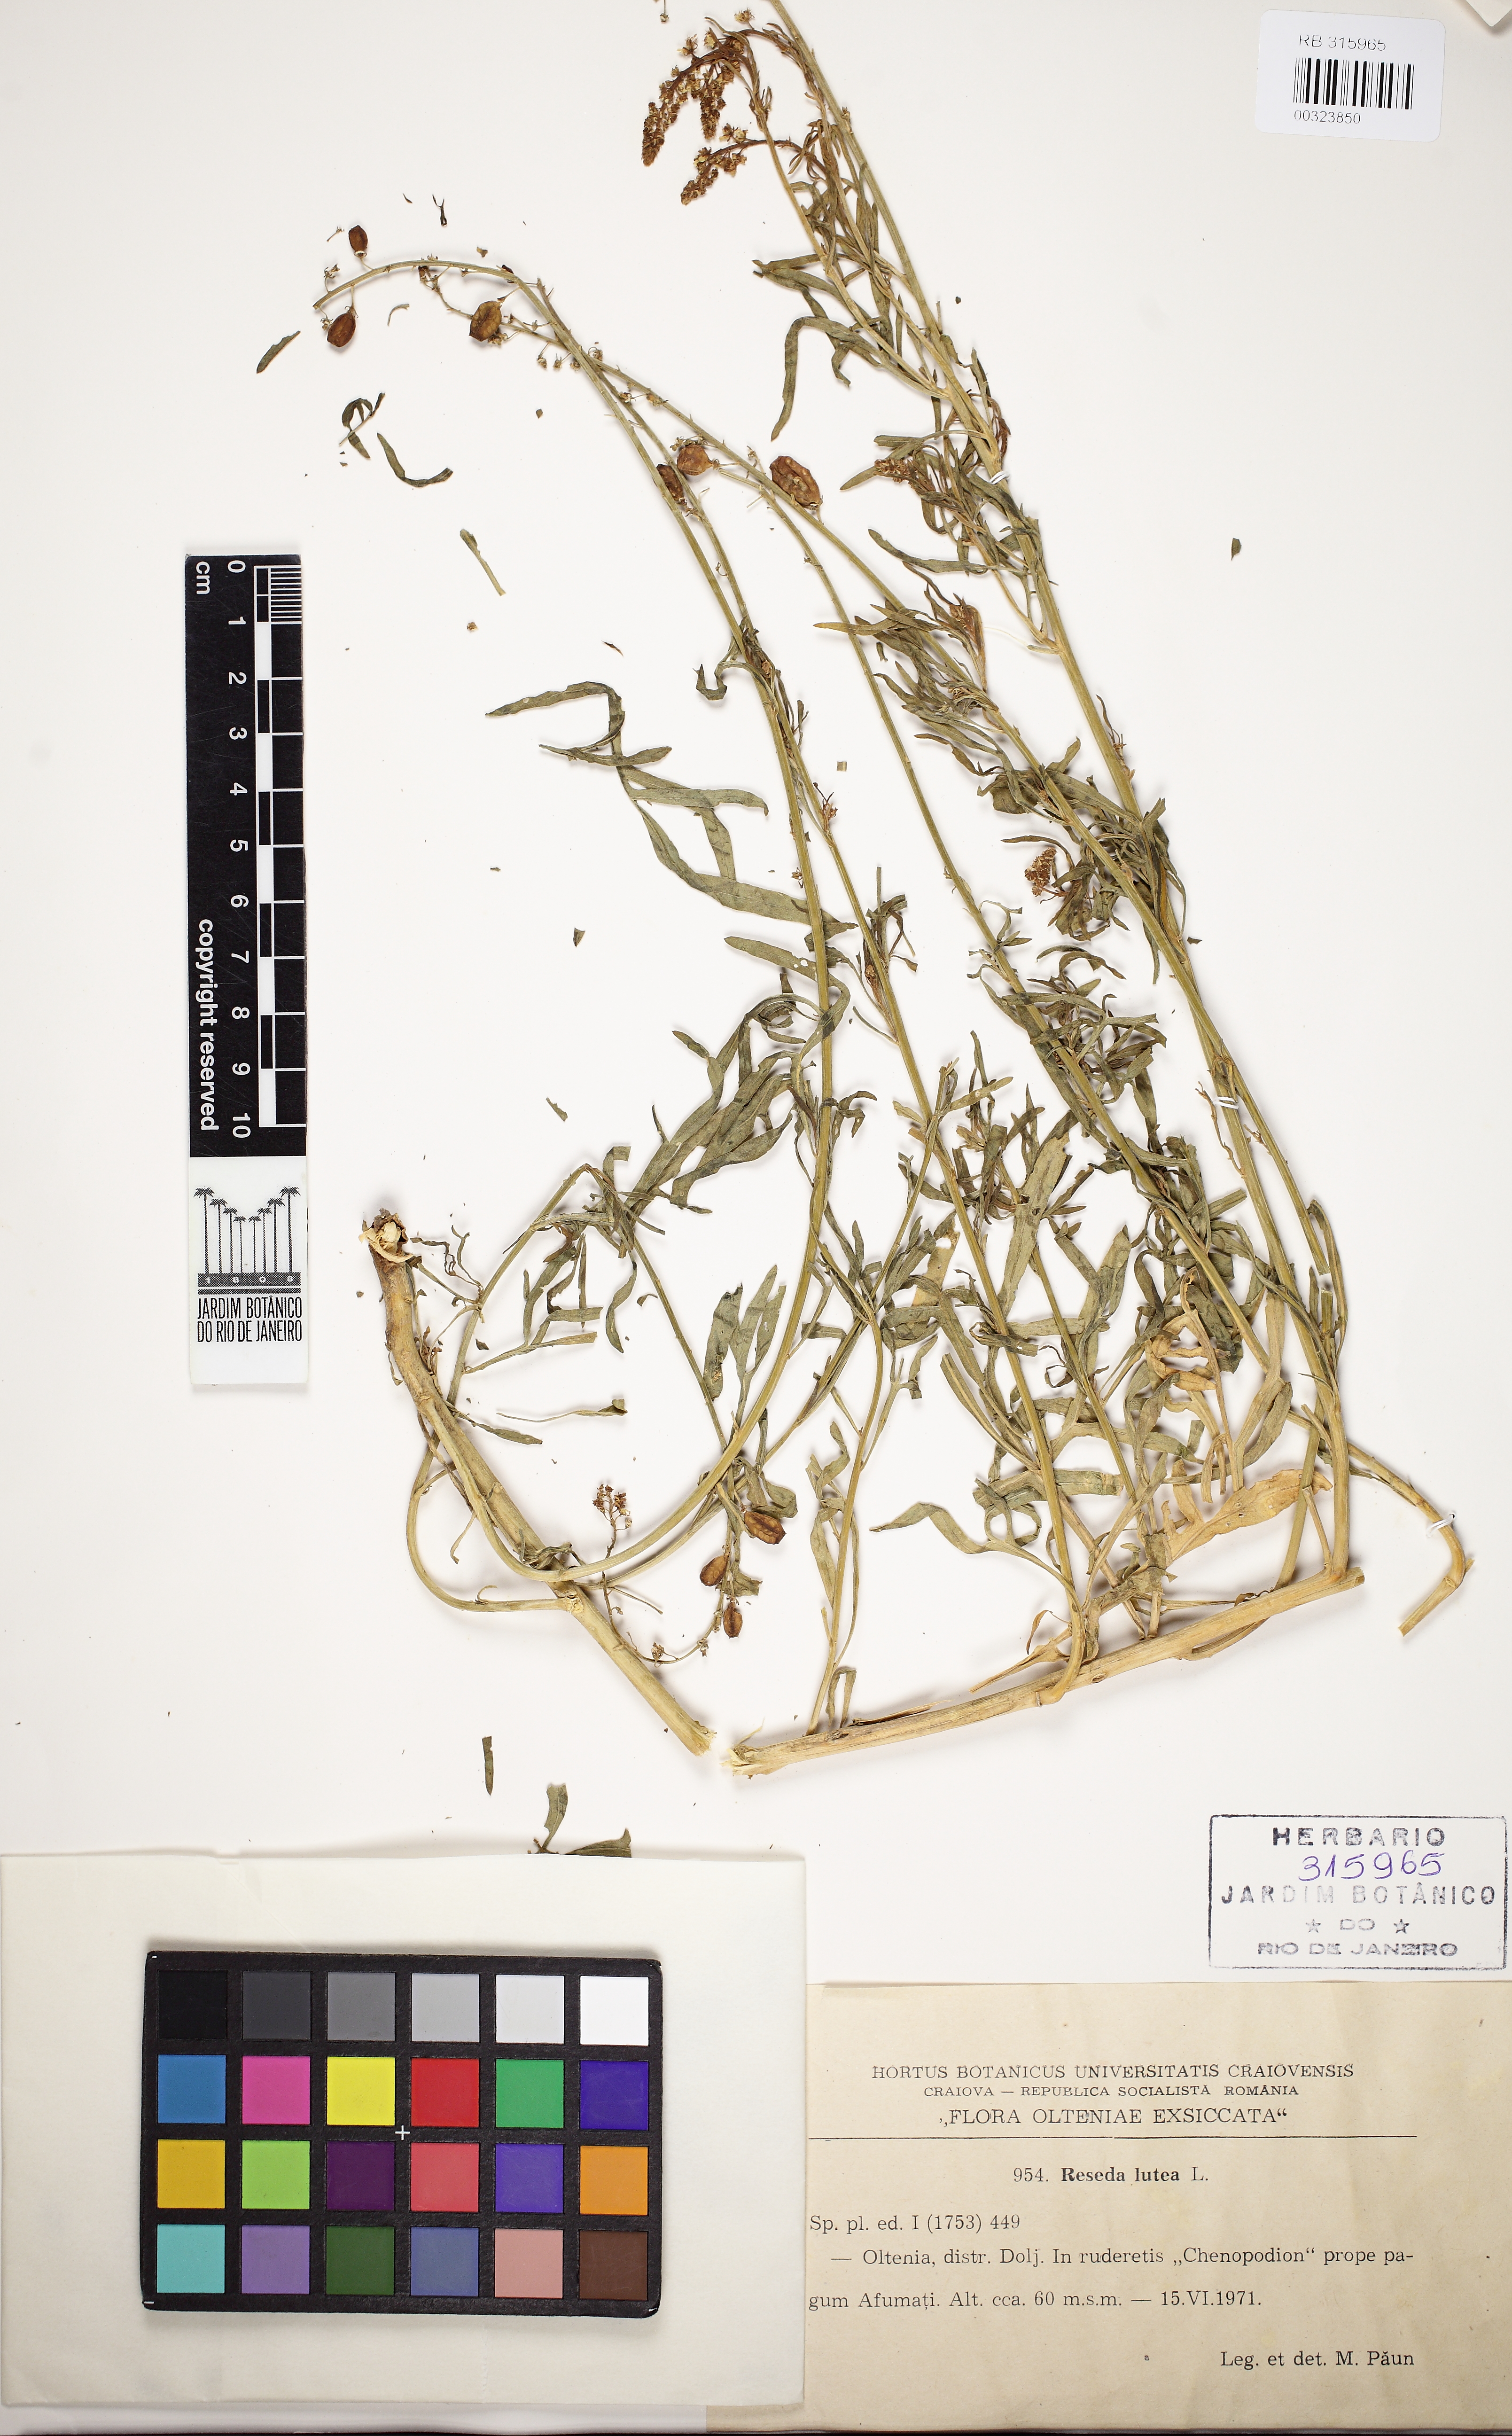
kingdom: Plantae
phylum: Tracheophyta
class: Magnoliopsida
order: Brassicales
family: Resedaceae
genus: Reseda
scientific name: Reseda lutea
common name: Wild mignonette
